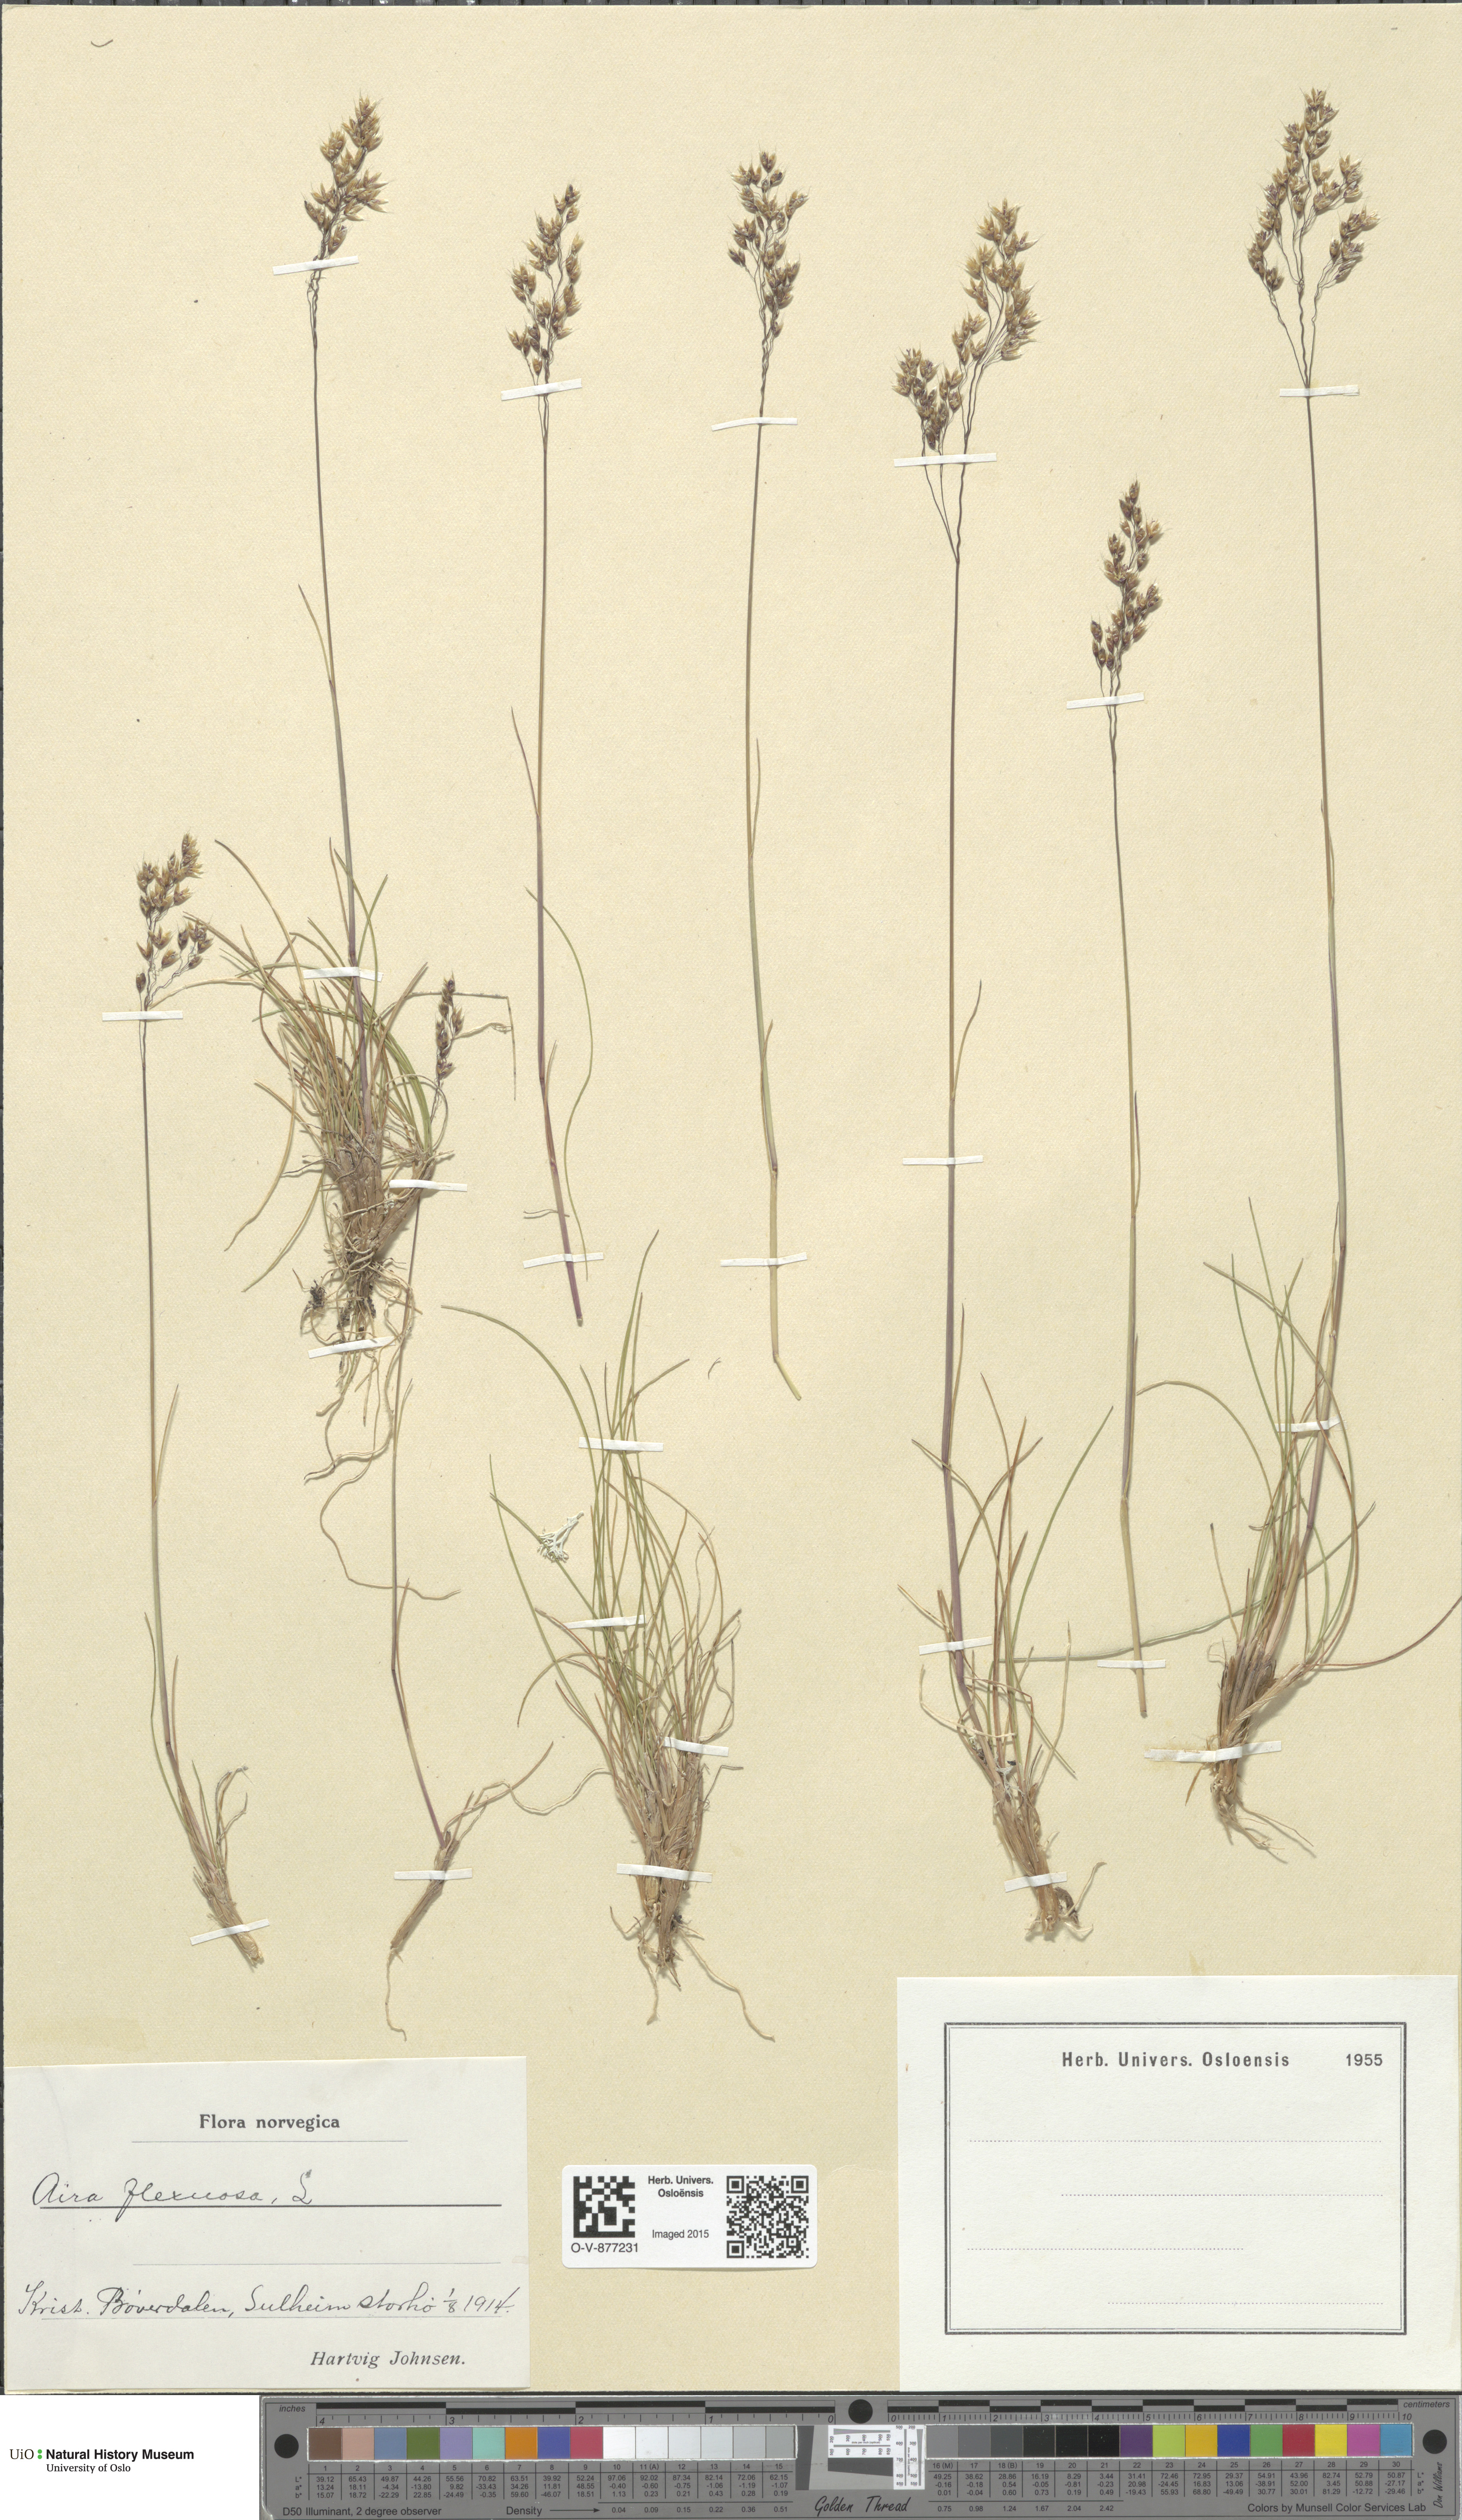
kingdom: Plantae
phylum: Tracheophyta
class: Liliopsida
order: Poales
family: Poaceae
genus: Avenella
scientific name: Avenella flexuosa
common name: Wavy hairgrass
